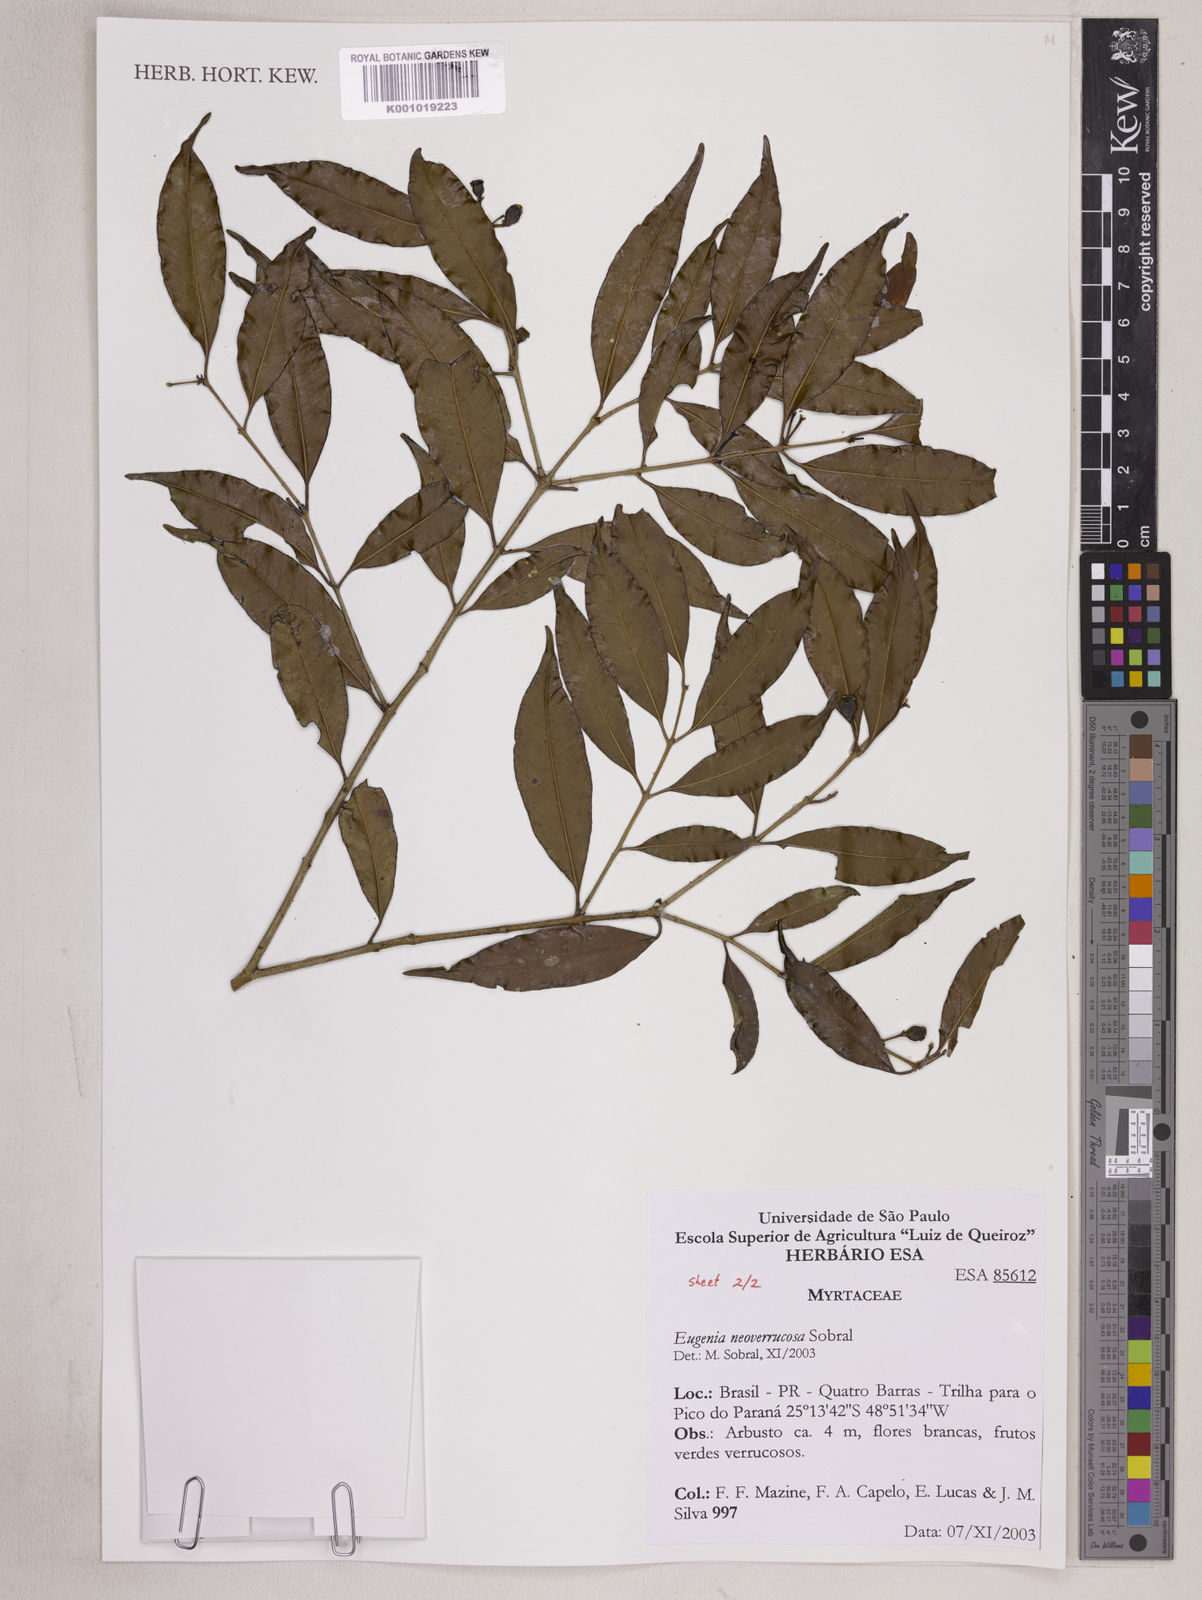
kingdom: Plantae
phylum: Tracheophyta
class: Magnoliopsida
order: Myrtales
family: Myrtaceae
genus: Eugenia
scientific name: Eugenia neoverrucosa
